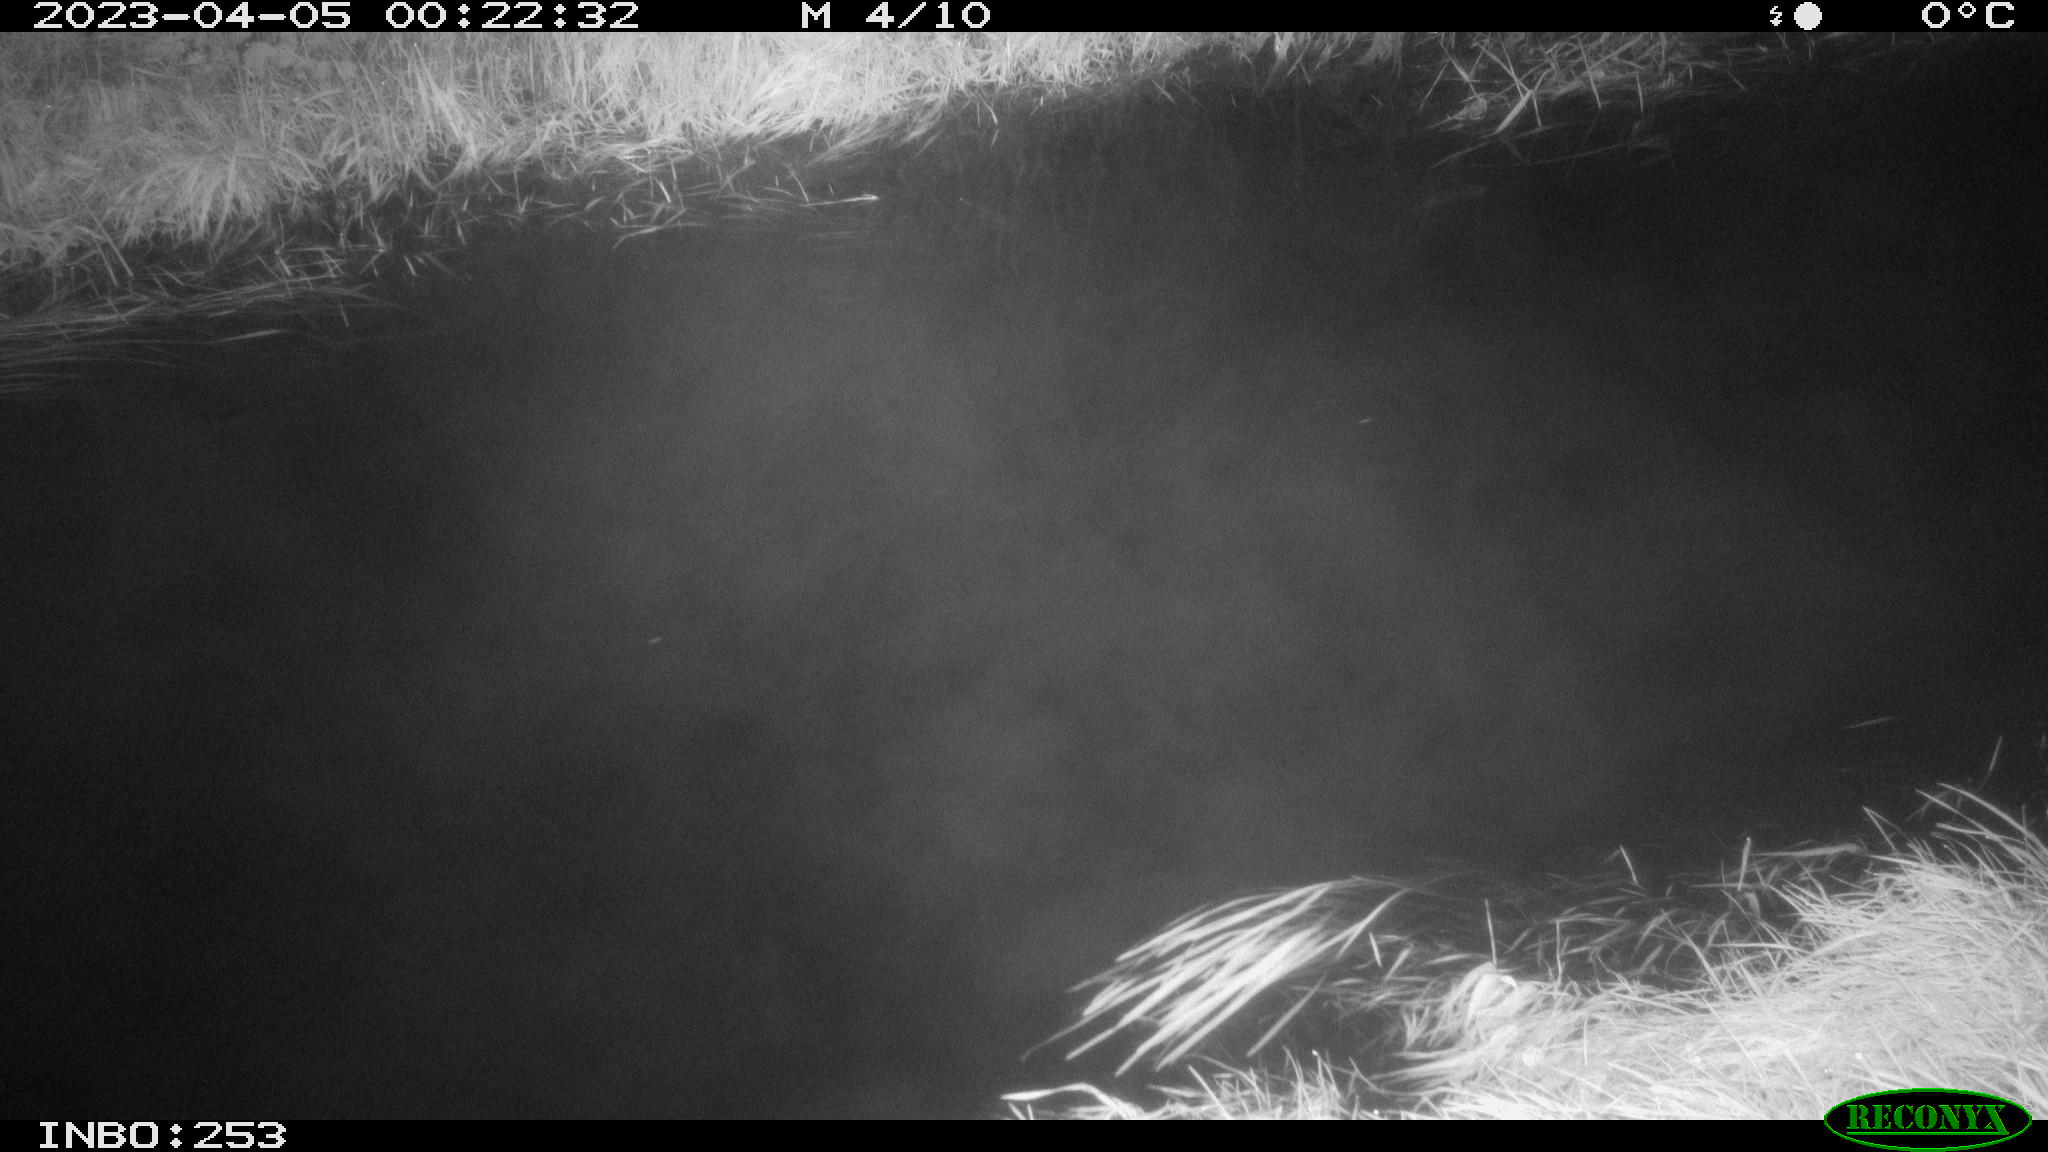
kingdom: Animalia
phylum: Chordata
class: Aves
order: Anseriformes
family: Anatidae
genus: Anas
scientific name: Anas
